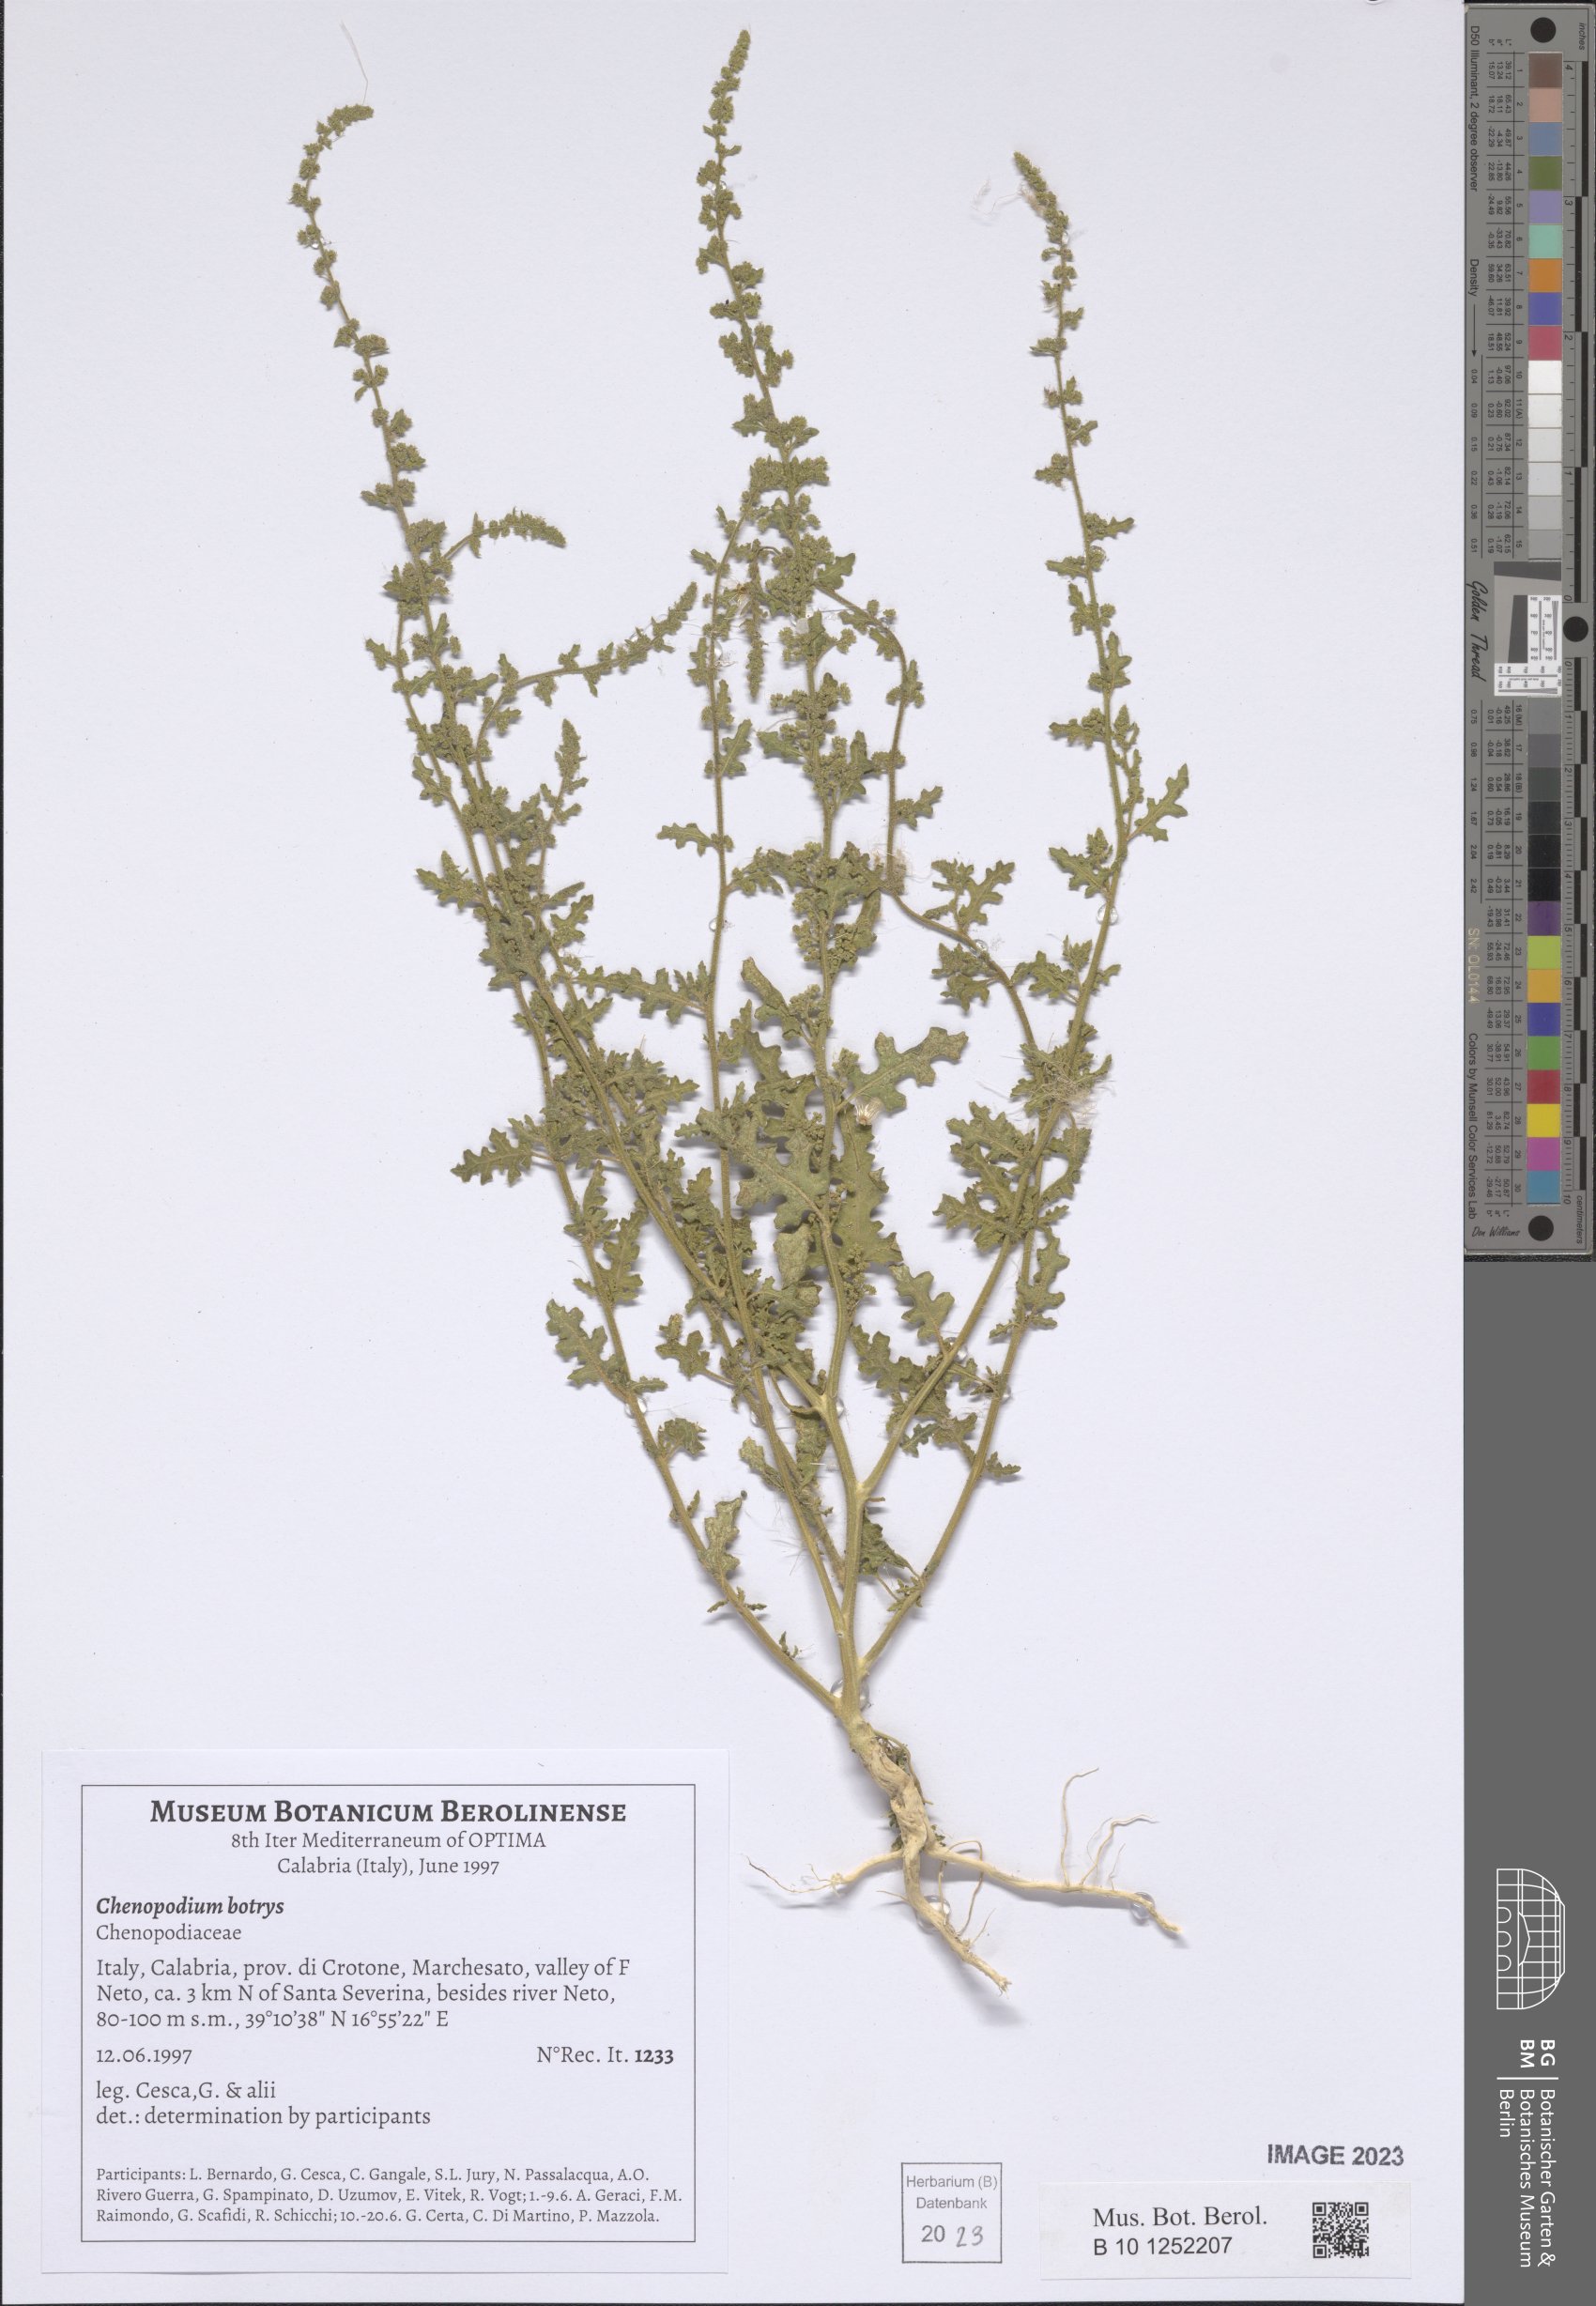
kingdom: Plantae
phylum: Tracheophyta
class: Magnoliopsida
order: Caryophyllales
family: Amaranthaceae
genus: Dysphania
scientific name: Dysphania botrys
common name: Feather-geranium
